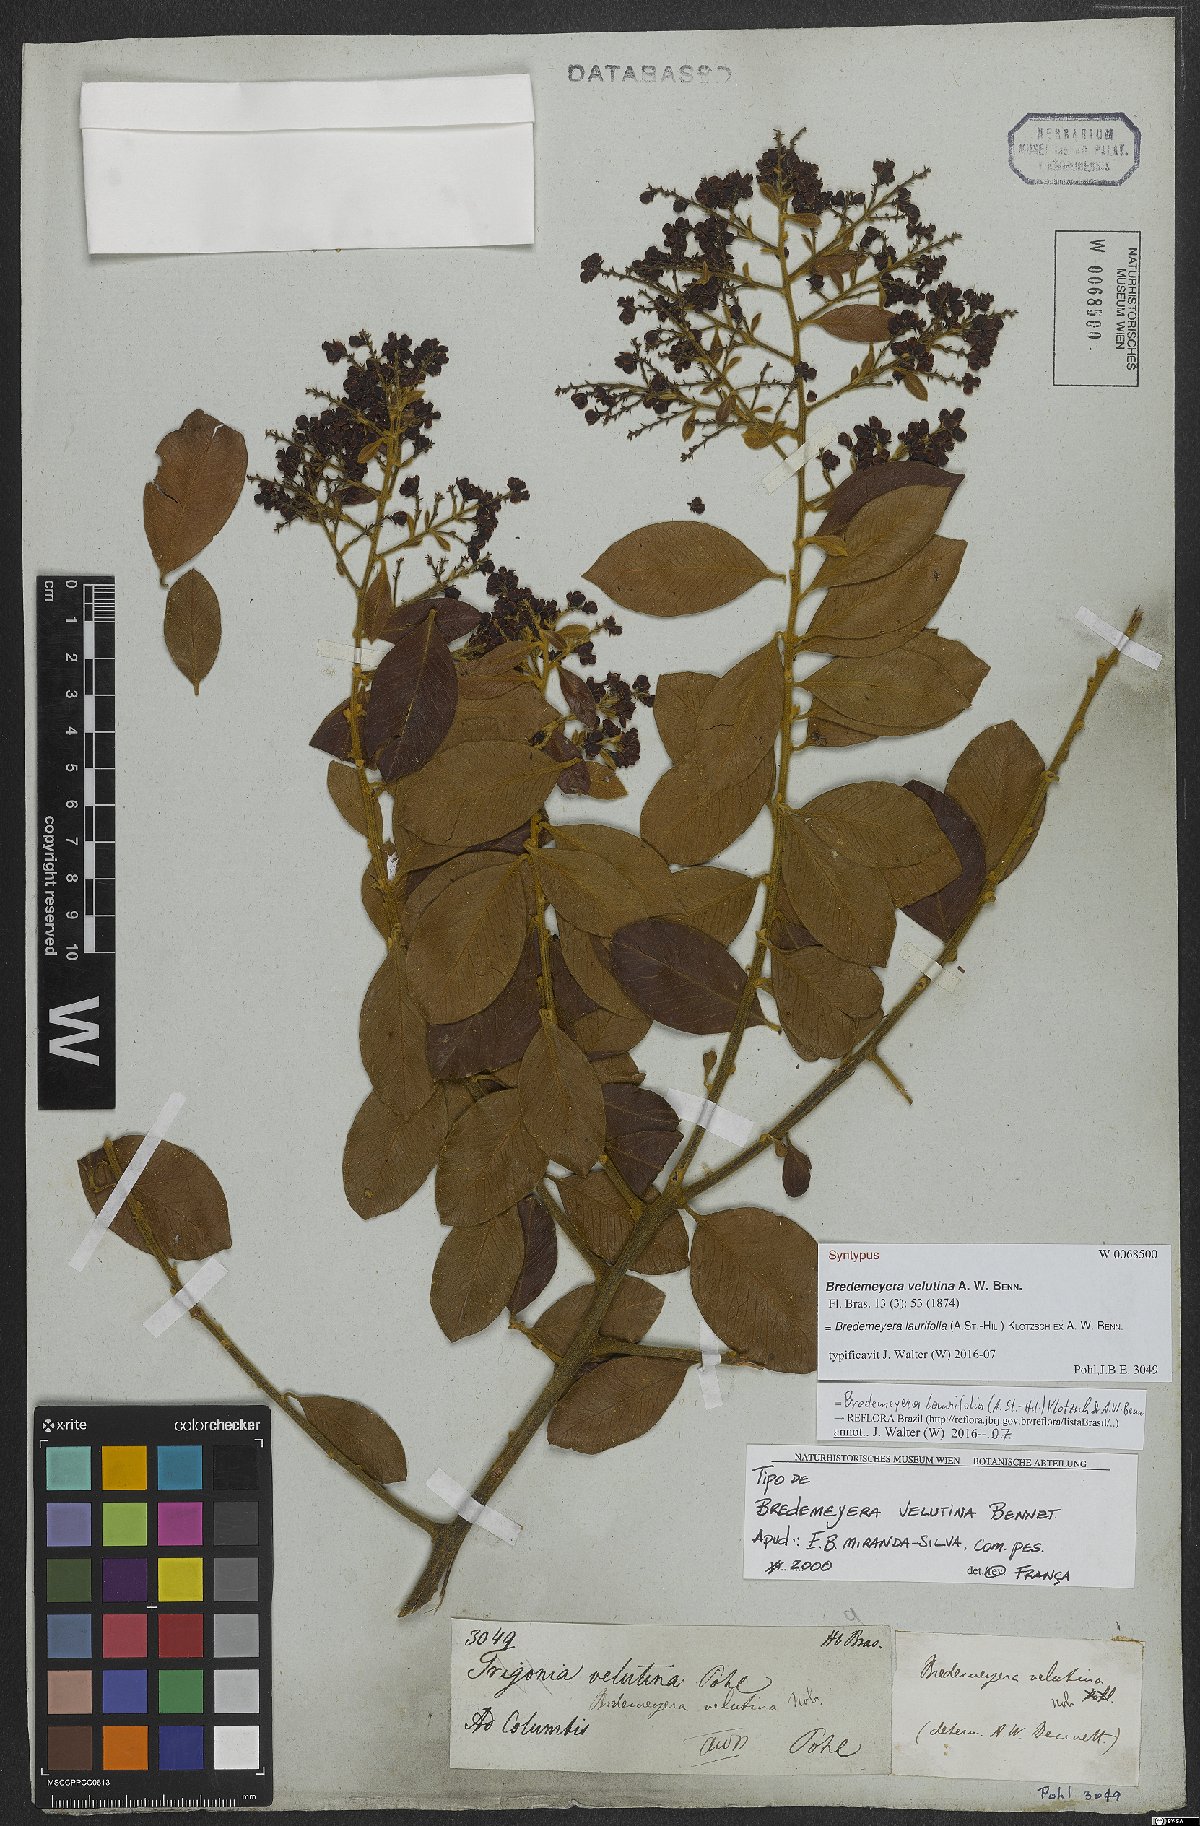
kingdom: Plantae
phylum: Tracheophyta
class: Magnoliopsida
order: Fabales
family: Polygalaceae
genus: Bredemeyera
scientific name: Bredemeyera laurifolia
